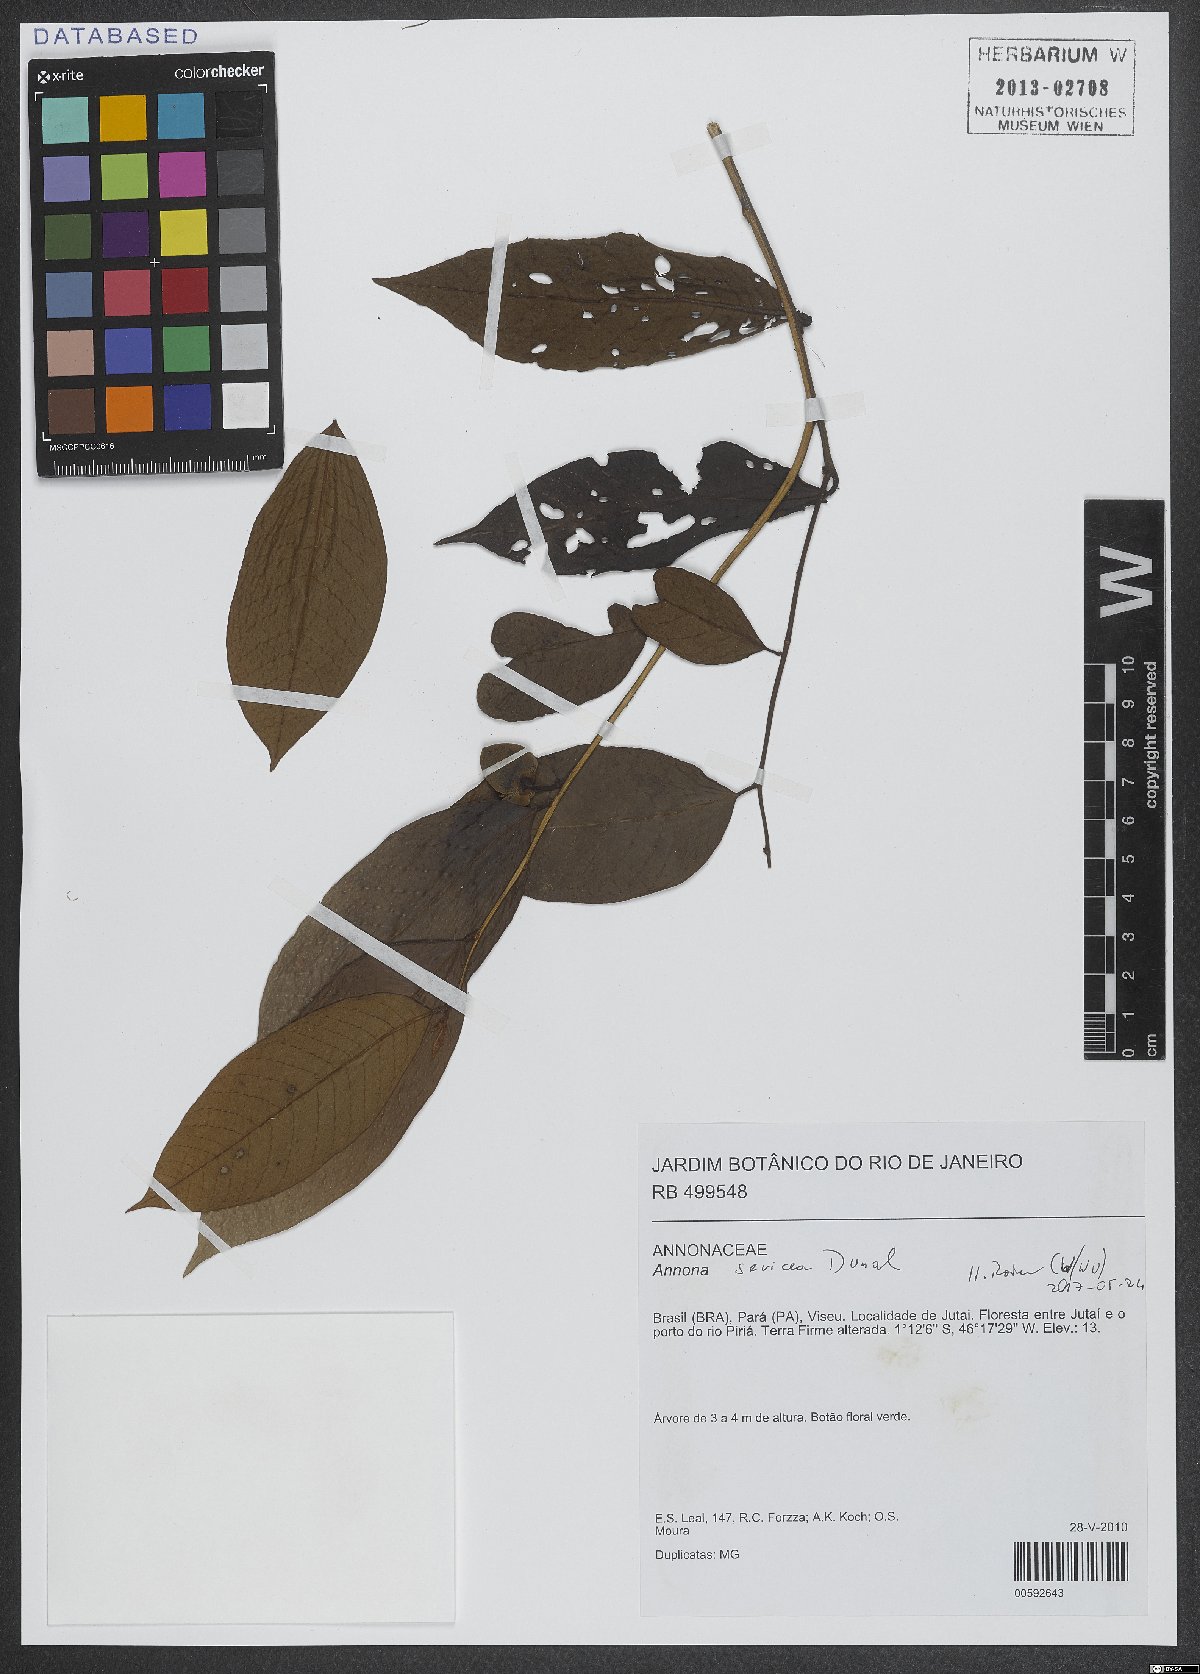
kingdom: Plantae
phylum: Tracheophyta
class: Magnoliopsida
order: Magnoliales
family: Annonaceae
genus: Annona
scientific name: Annona sericea
